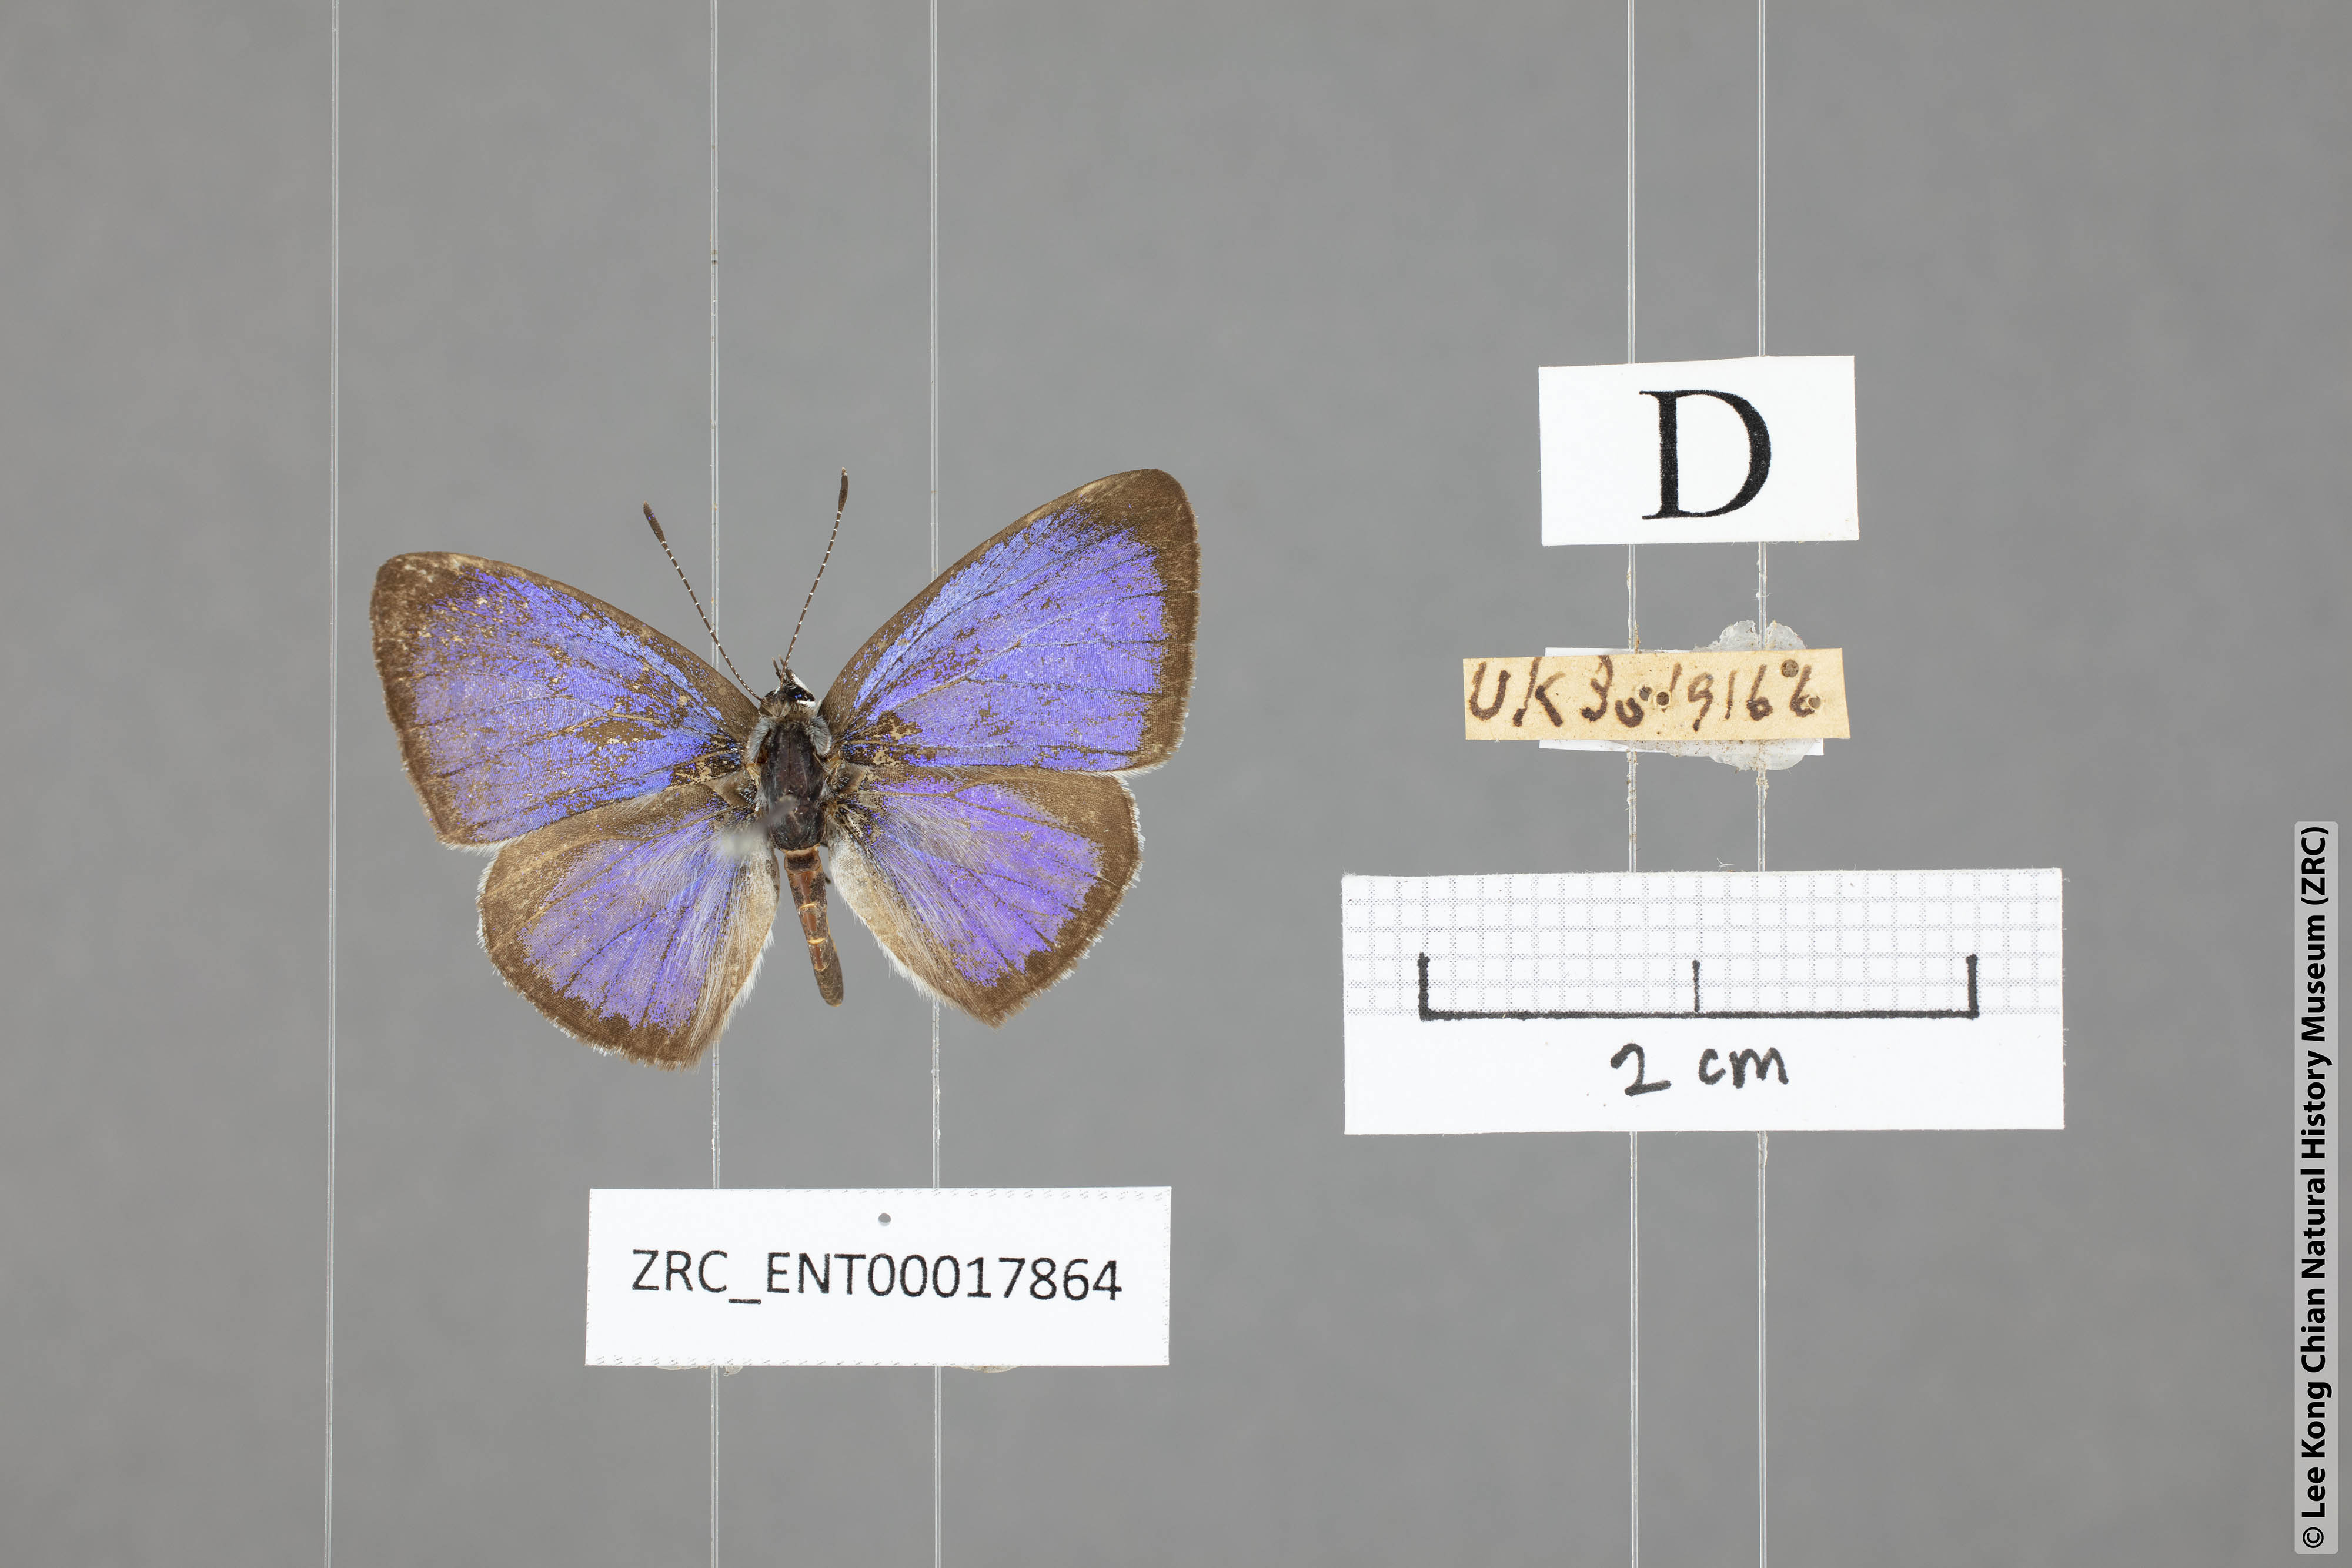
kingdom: Animalia
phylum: Arthropoda
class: Insecta
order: Lepidoptera
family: Lycaenidae
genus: Acytolepis
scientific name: Acytolepis puspa
